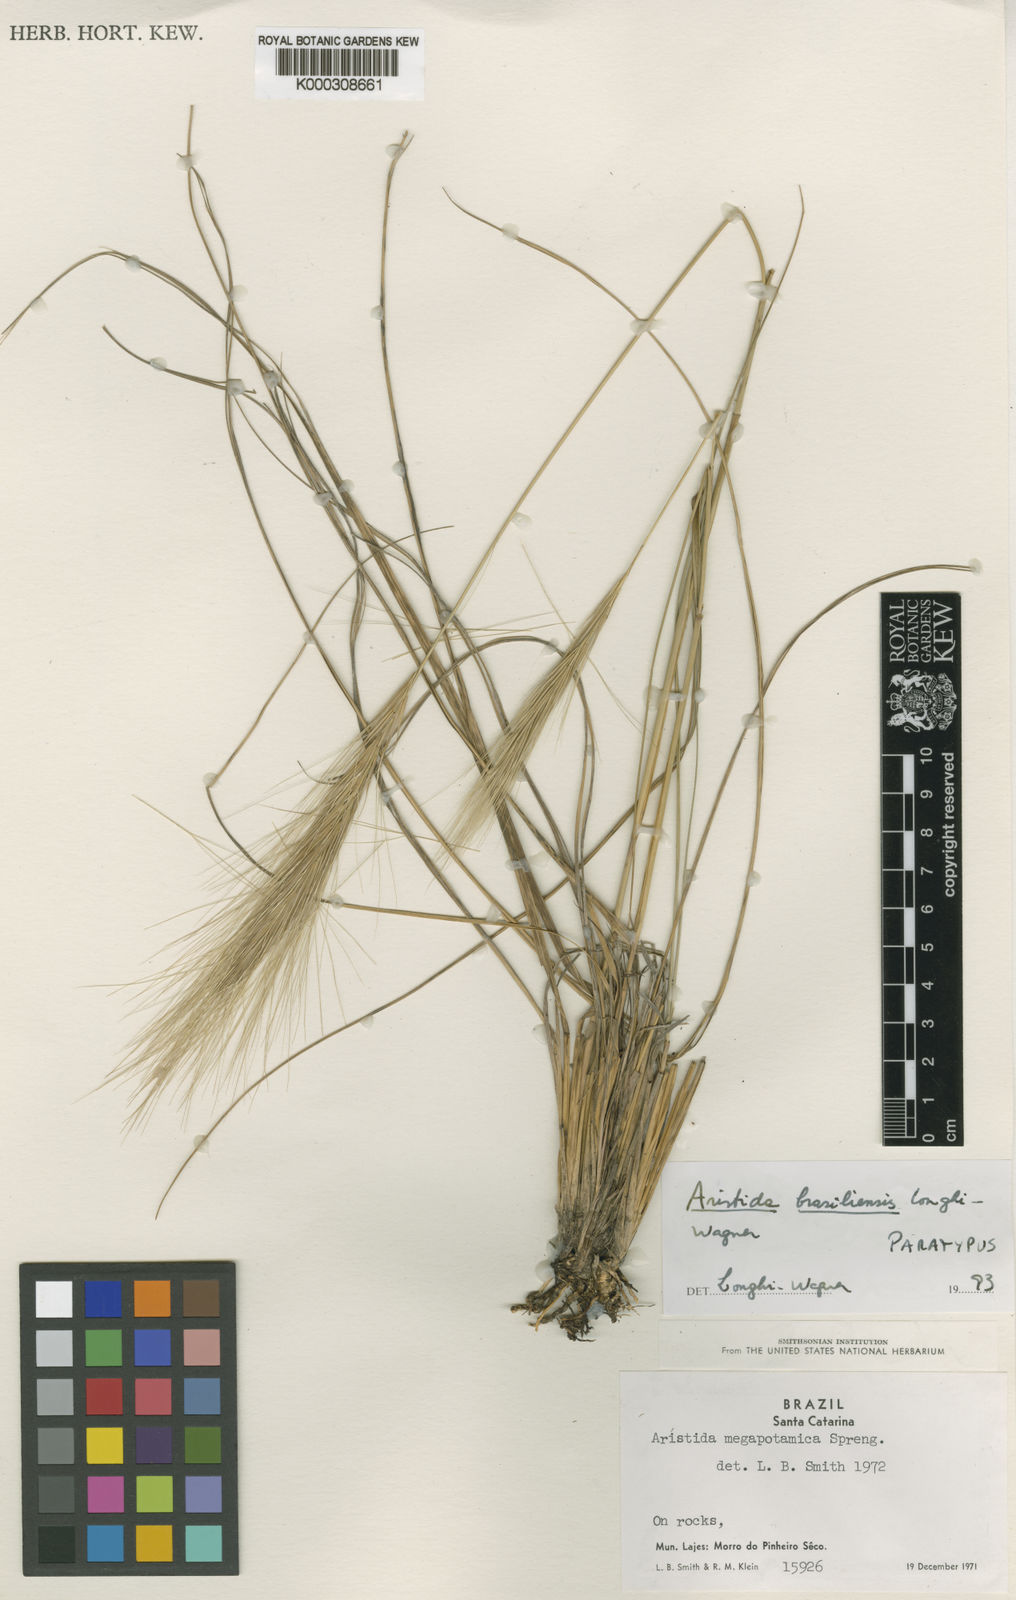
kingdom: Plantae
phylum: Tracheophyta
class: Liliopsida
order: Poales
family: Poaceae
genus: Aristida
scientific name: Aristida brasiliensis
